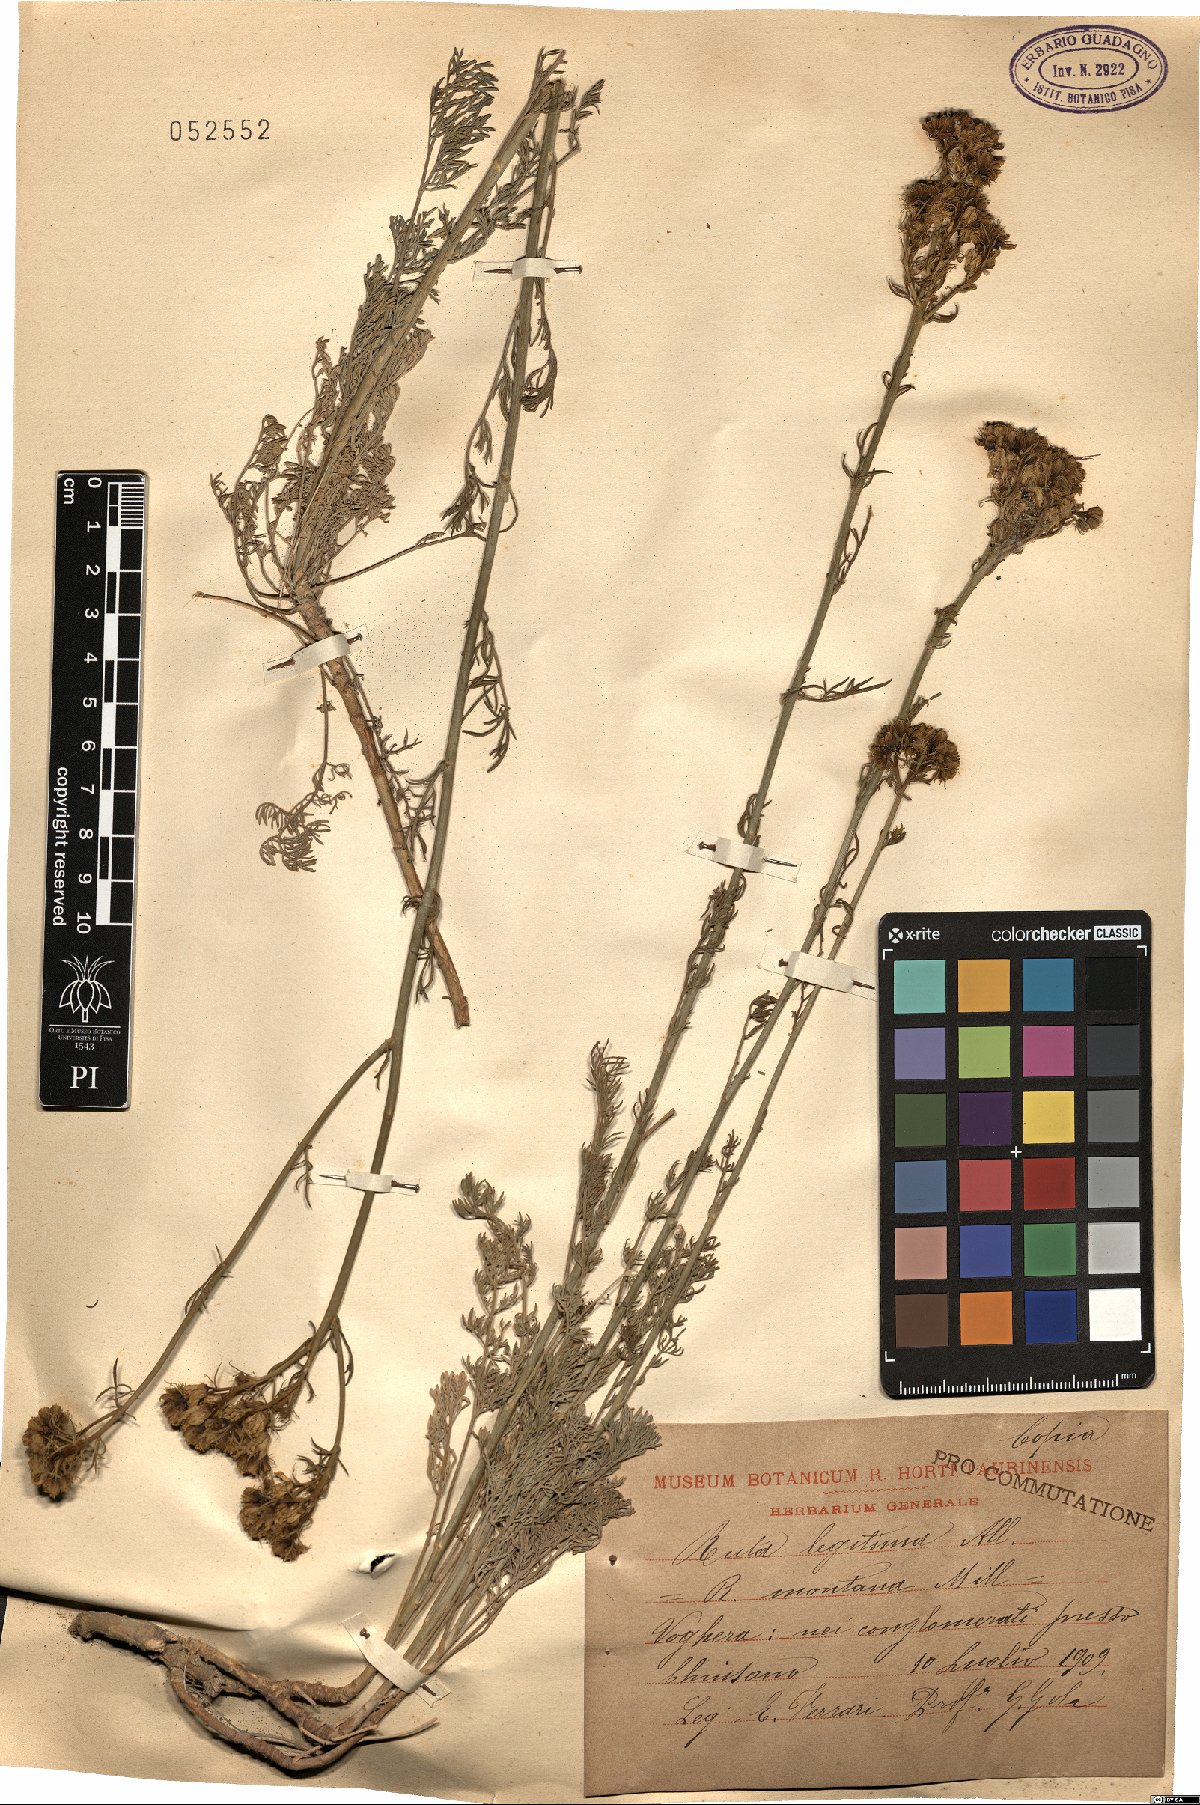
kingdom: Plantae
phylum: Tracheophyta
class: Magnoliopsida
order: Sapindales
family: Rutaceae
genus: Ruta
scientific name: Ruta montana
